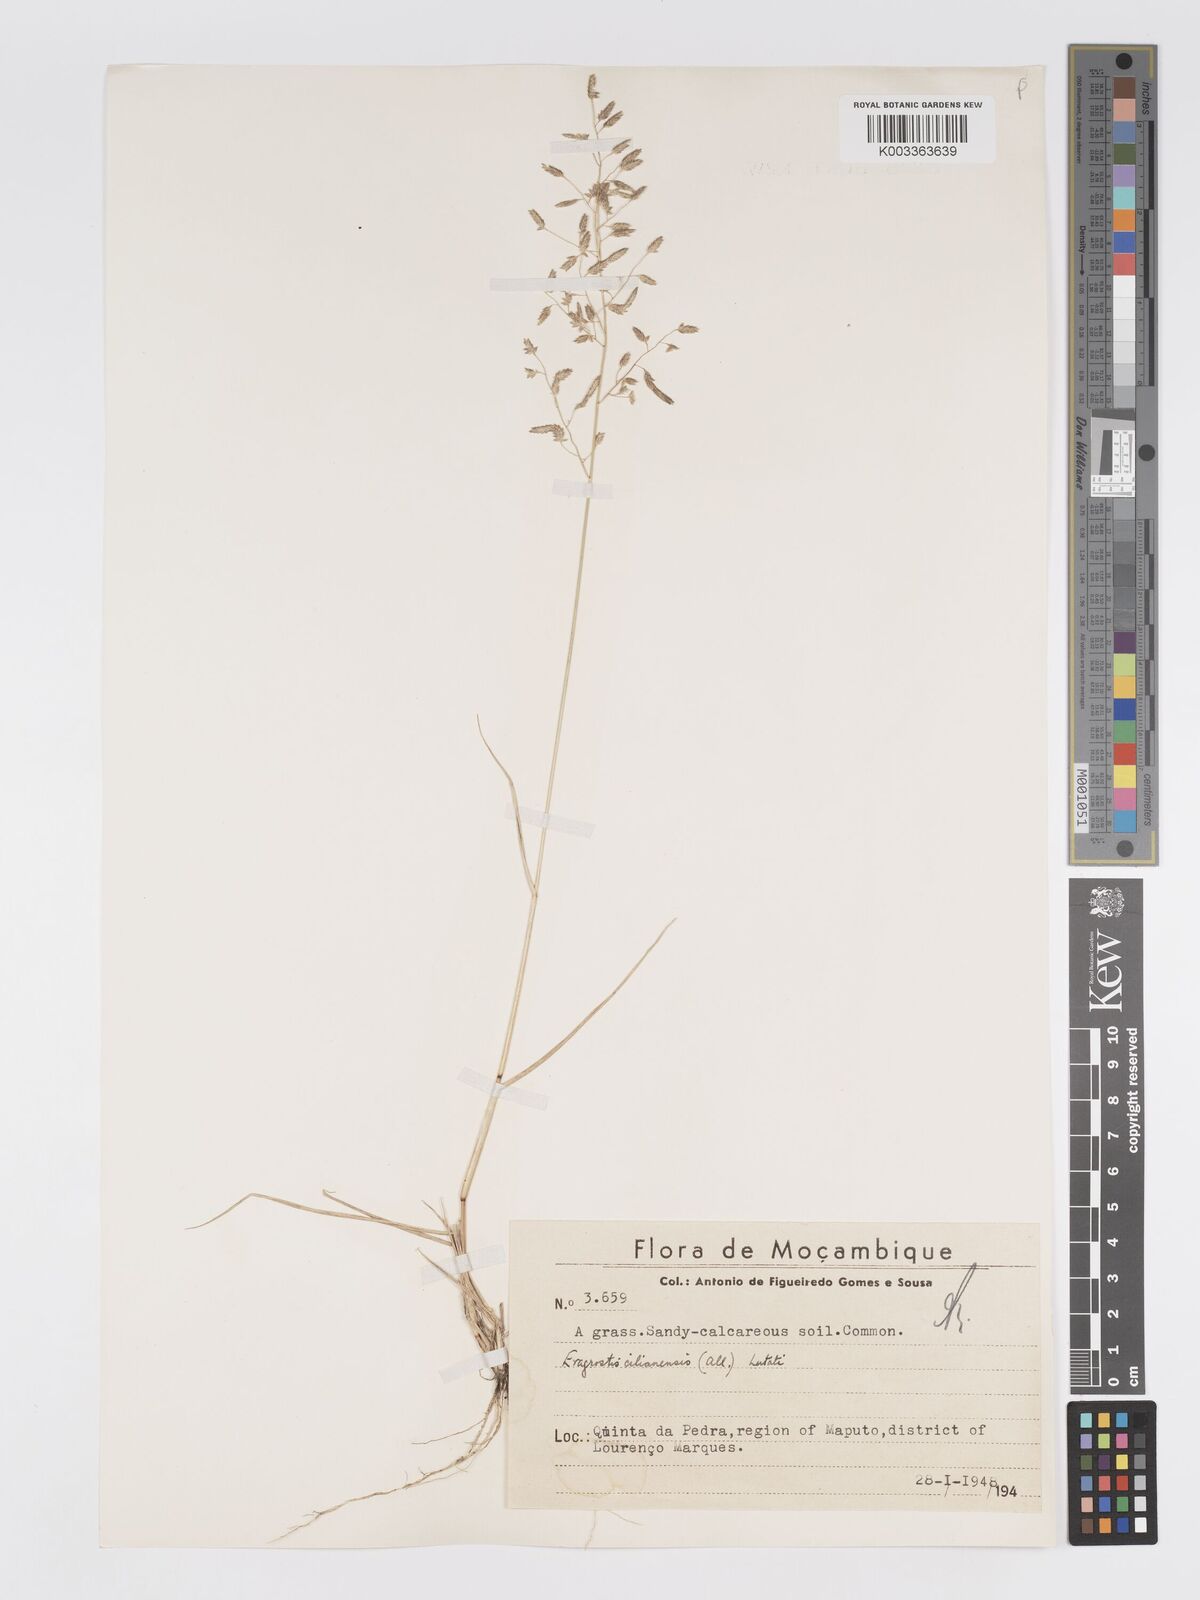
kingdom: Plantae
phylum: Tracheophyta
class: Liliopsida
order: Poales
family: Poaceae
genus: Eragrostis
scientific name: Eragrostis cilianensis
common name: Stinkgrass
